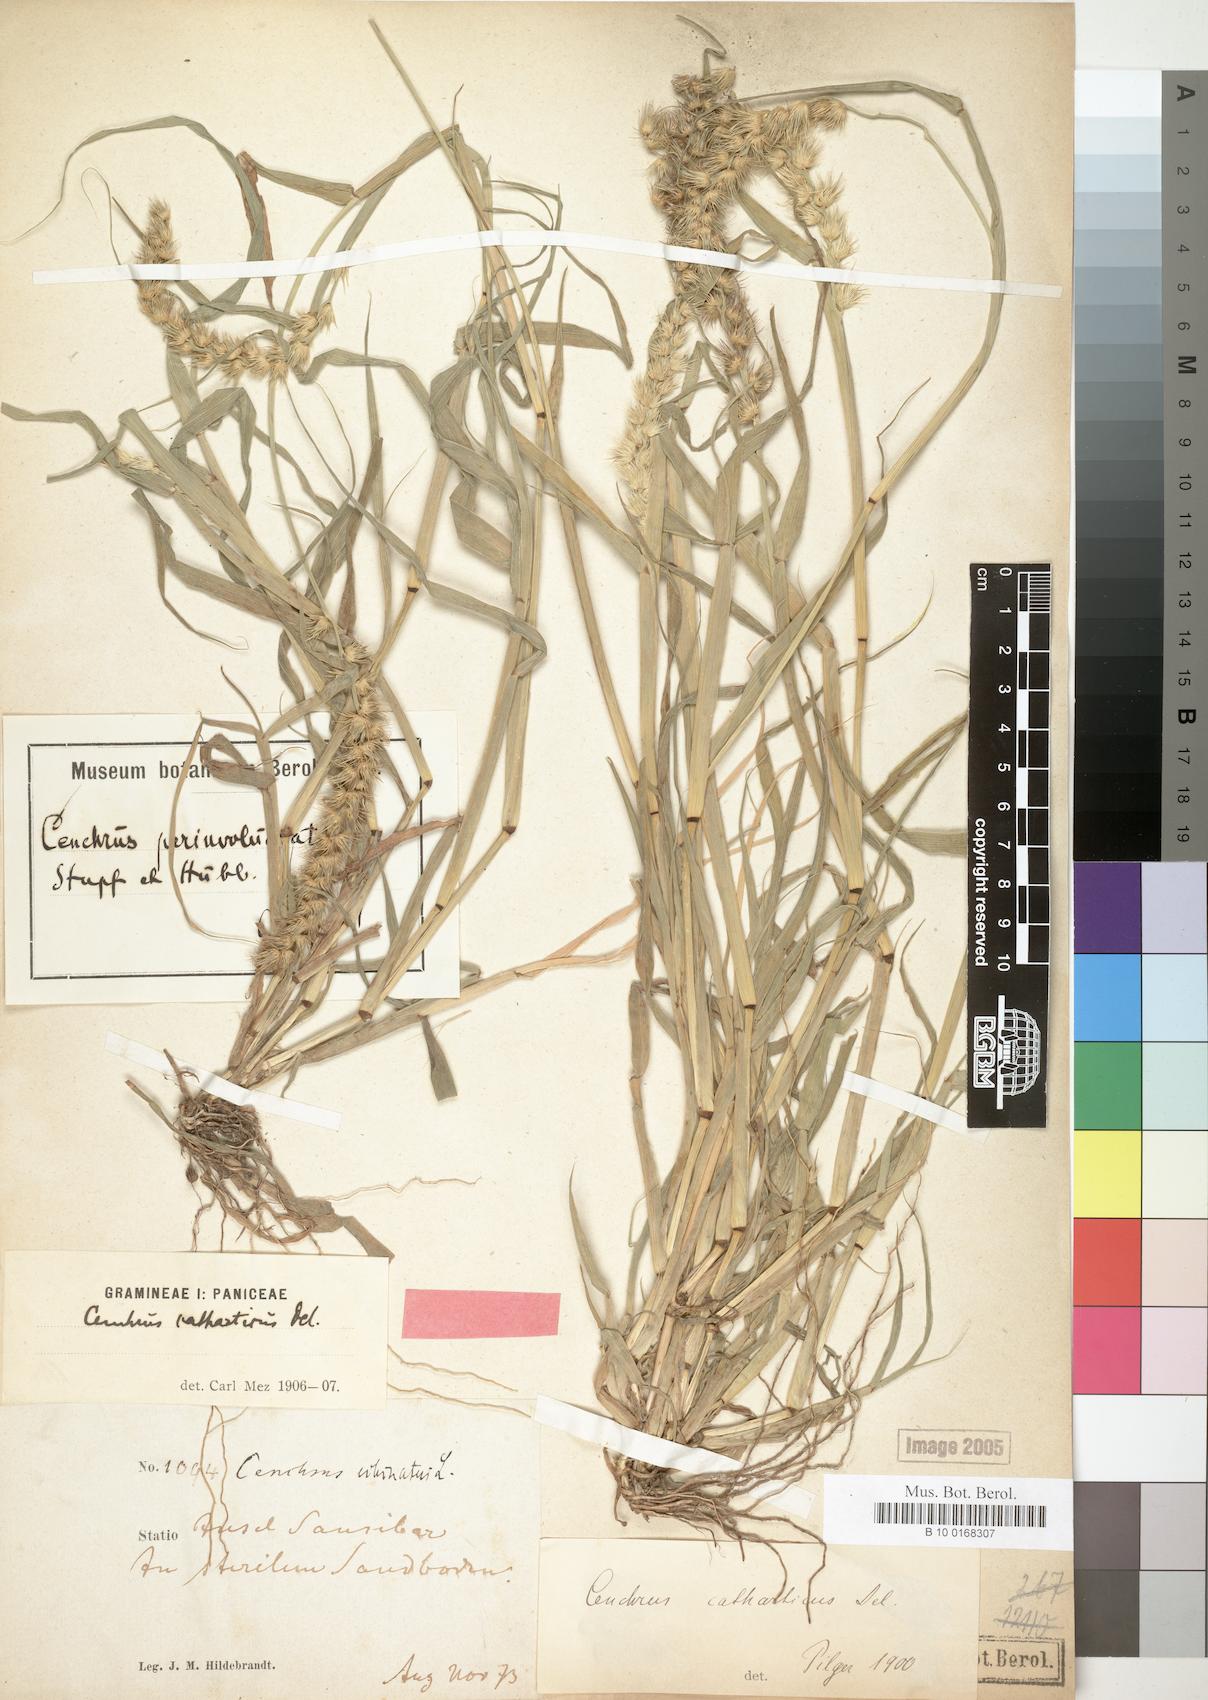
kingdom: Plantae
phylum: Tracheophyta
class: Liliopsida
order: Poales
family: Poaceae
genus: Cenchrus
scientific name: Cenchrus biflorus
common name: Indian sandbur
